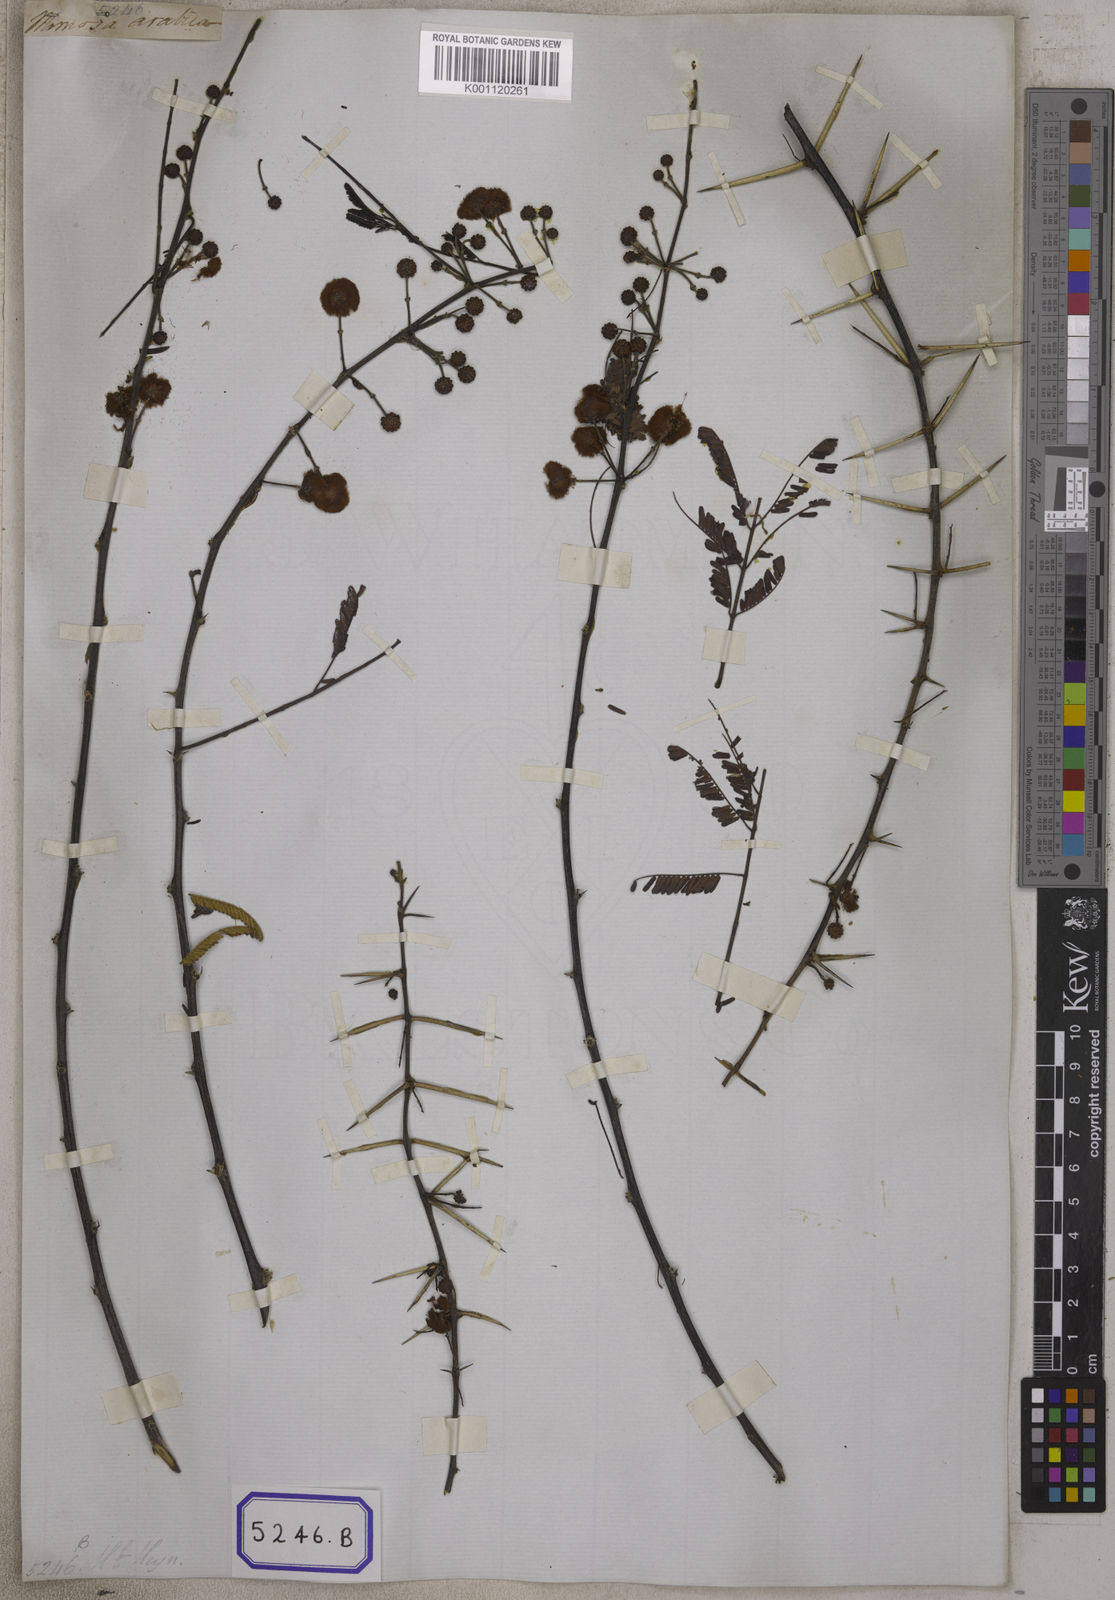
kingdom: Plantae
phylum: Tracheophyta
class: Magnoliopsida
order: Fabales
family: Fabaceae
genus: Vachellia
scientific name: Vachellia nilotica
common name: Arabic gumtree
